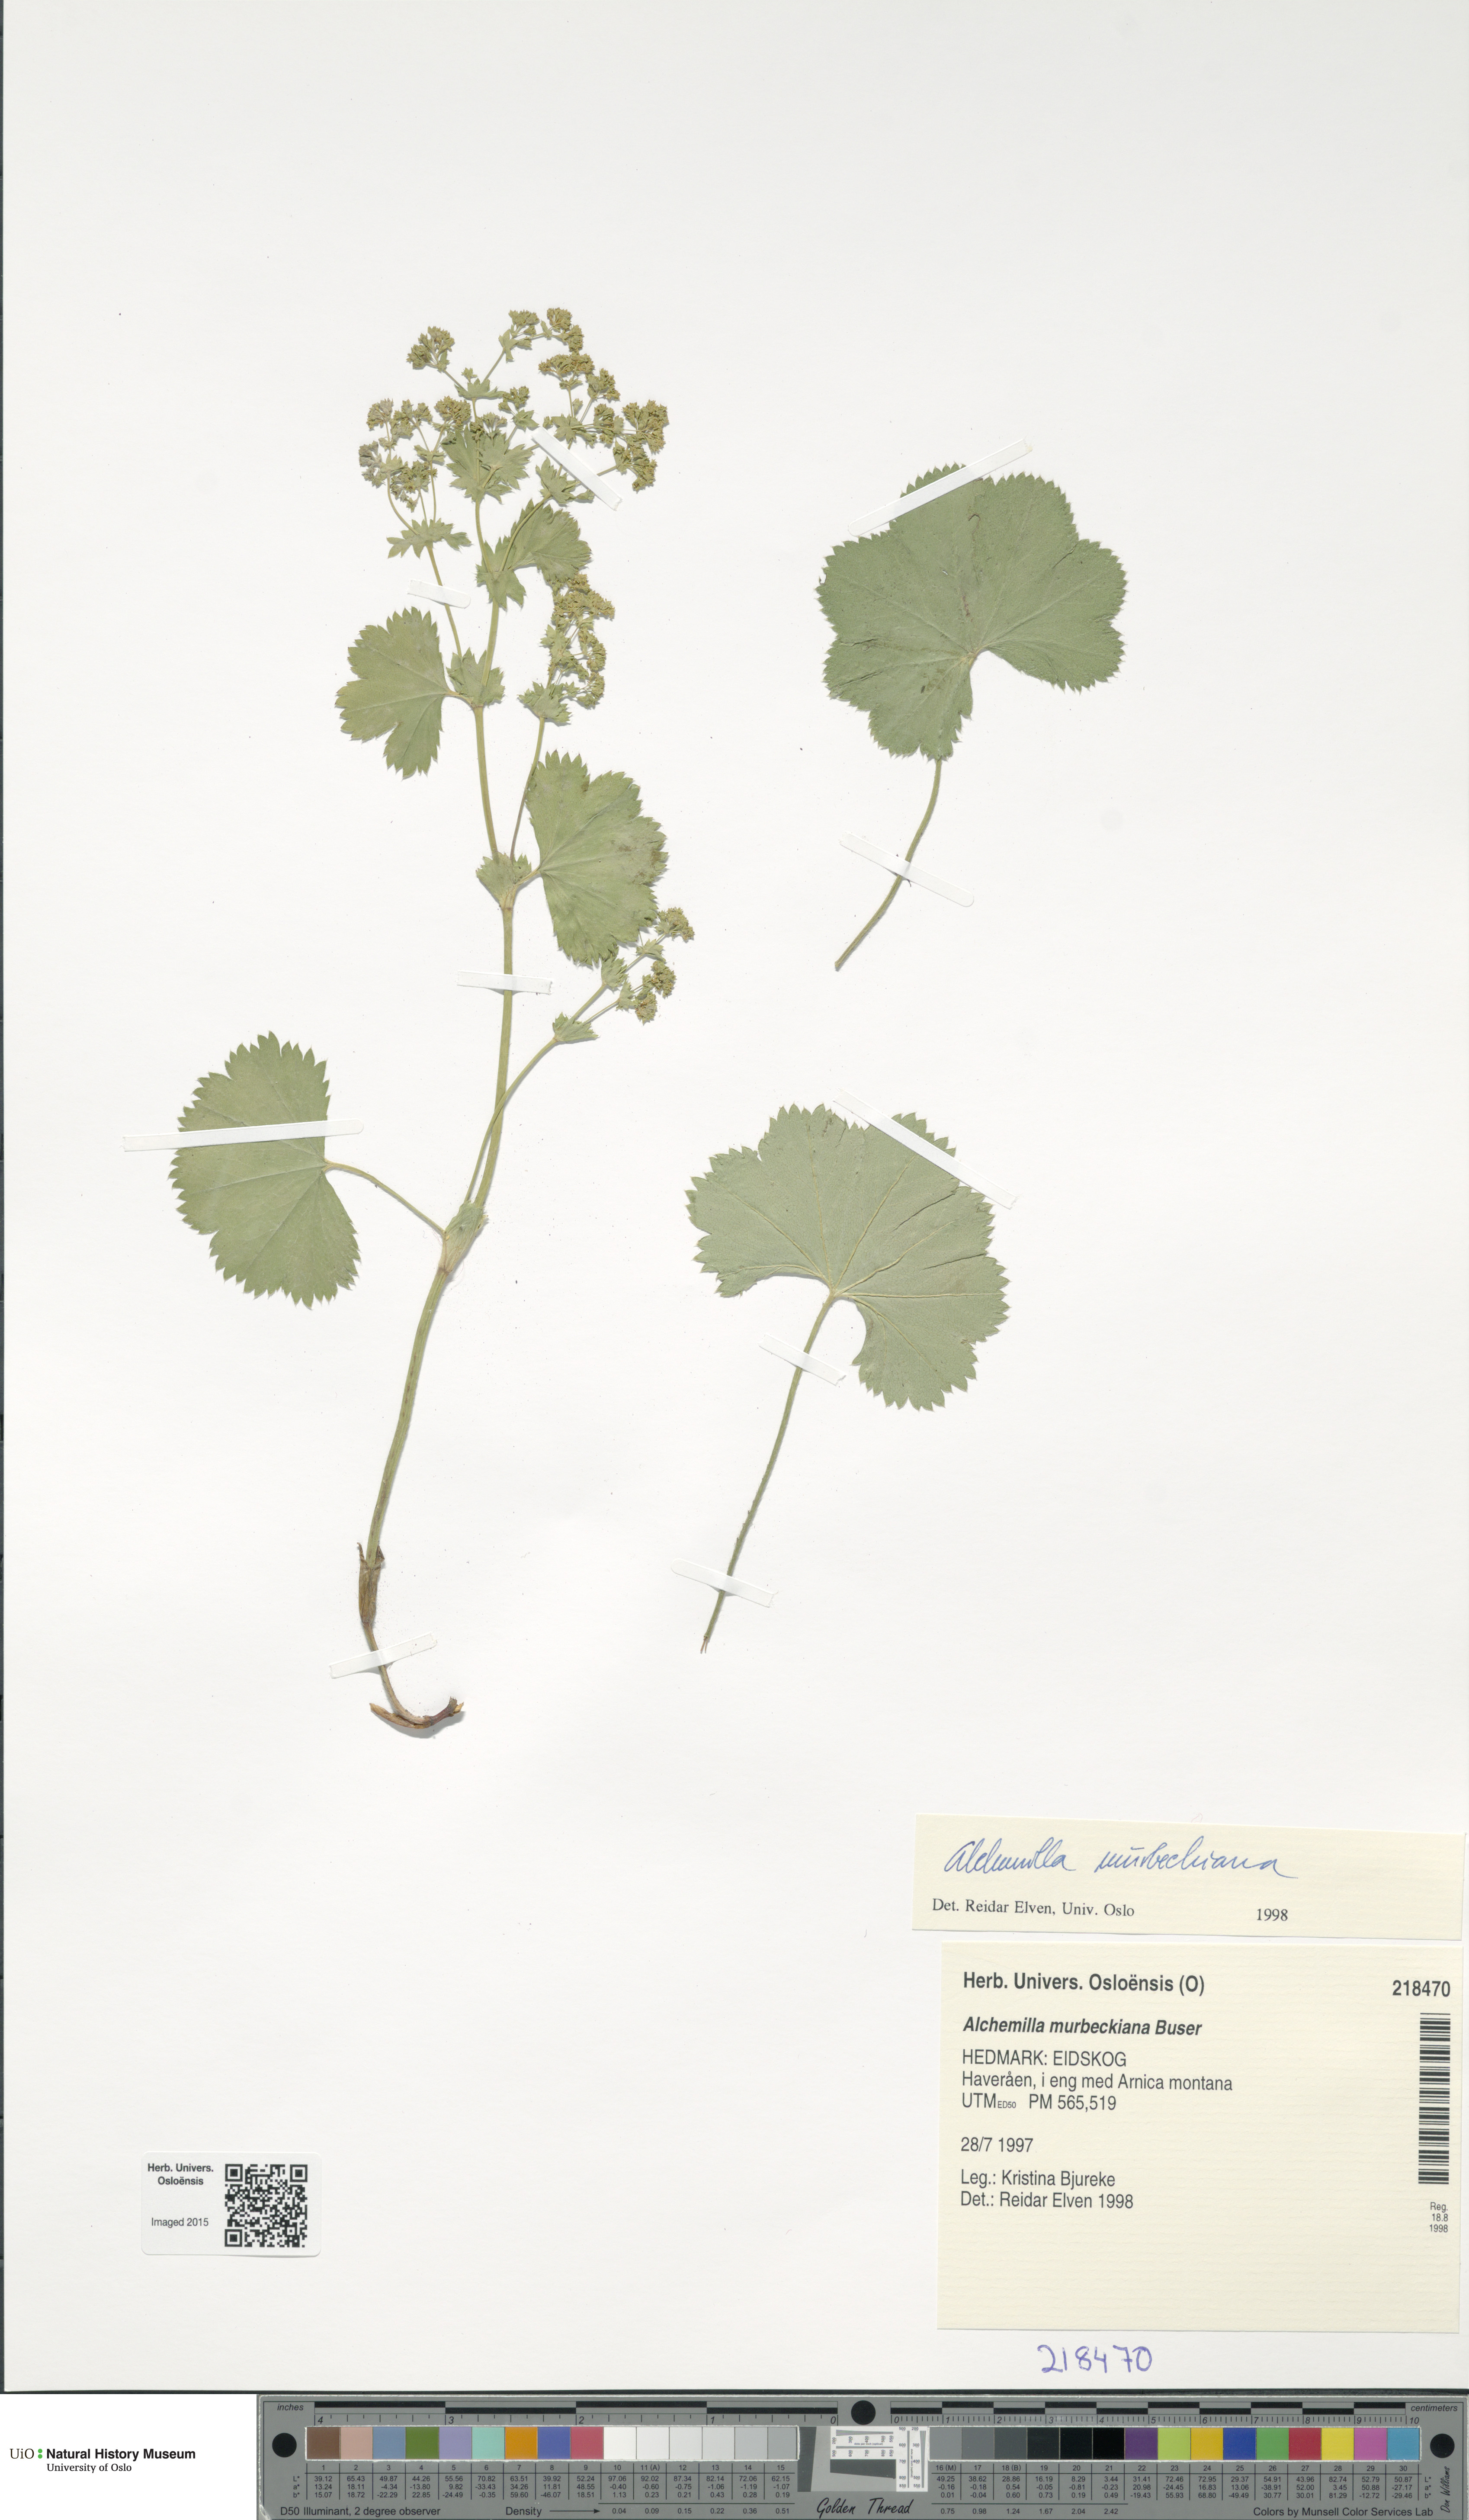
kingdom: Plantae
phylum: Tracheophyta
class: Magnoliopsida
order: Rosales
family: Rosaceae
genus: Alchemilla
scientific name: Alchemilla murbeckiana
